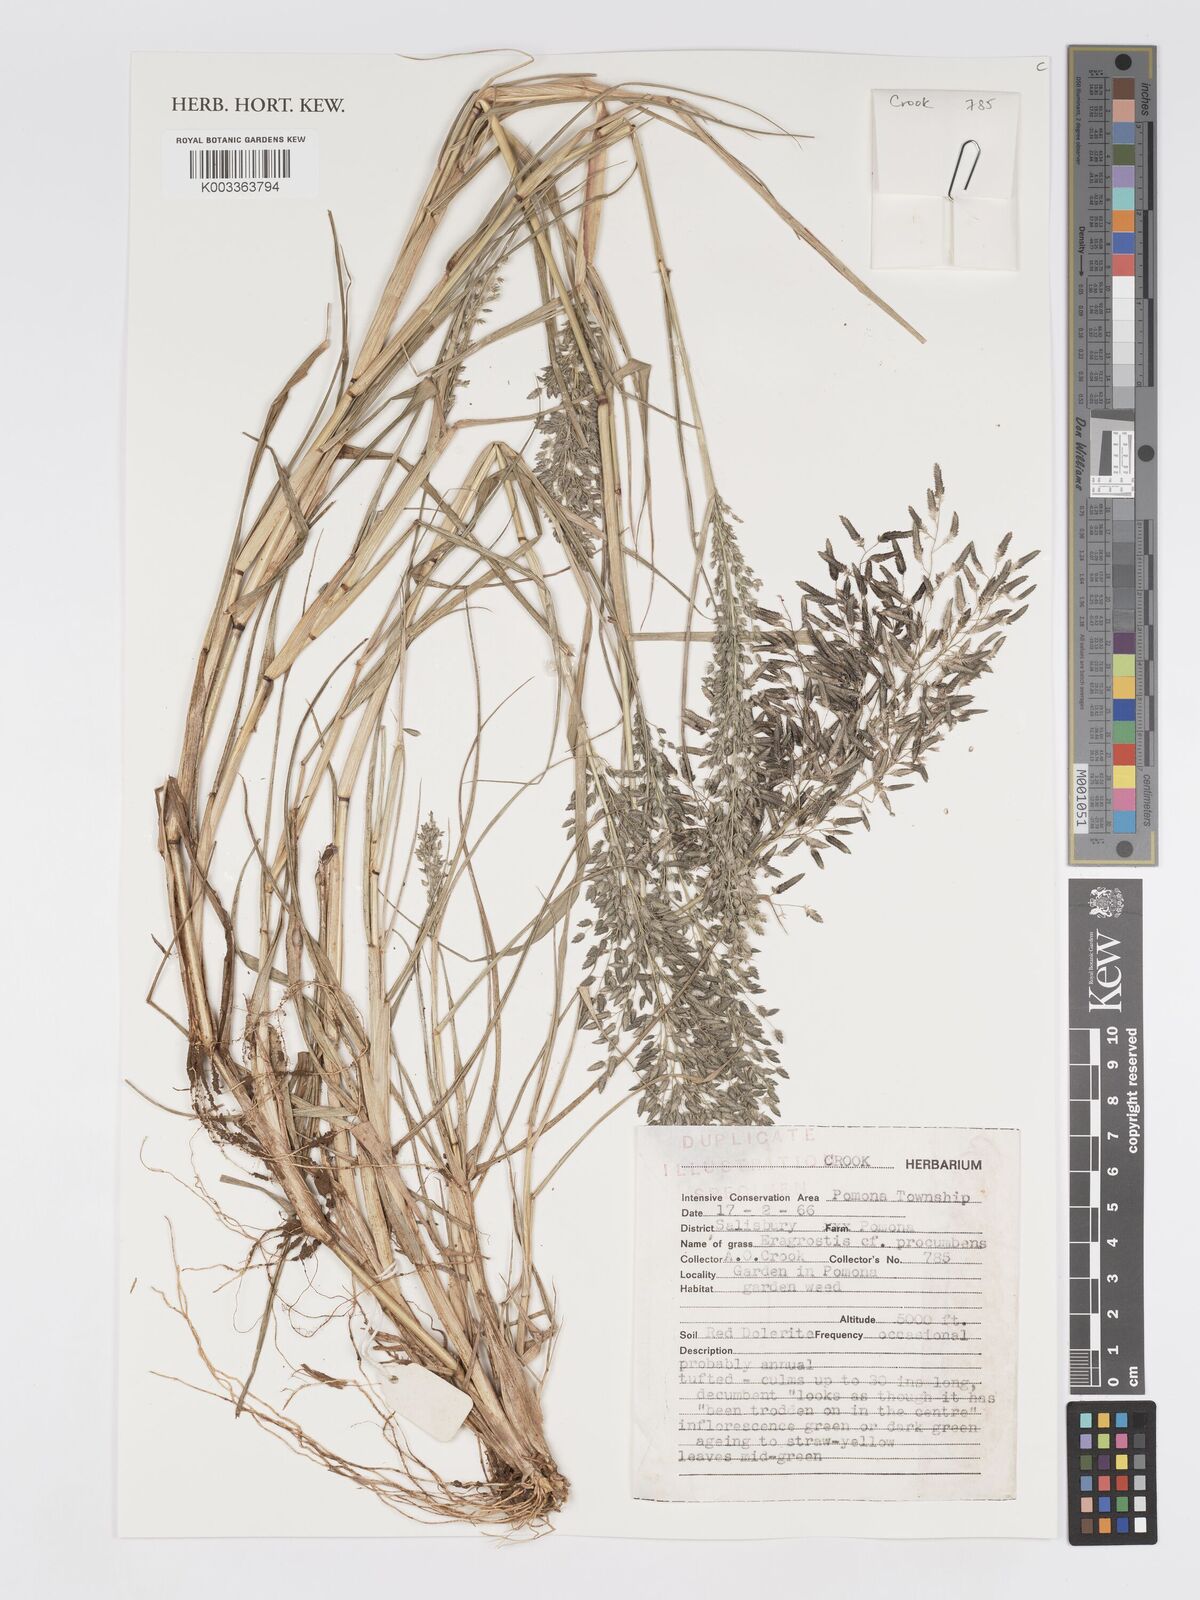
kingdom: Plantae
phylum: Tracheophyta
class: Liliopsida
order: Poales
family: Poaceae
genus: Eragrostis
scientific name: Eragrostis procumbens
